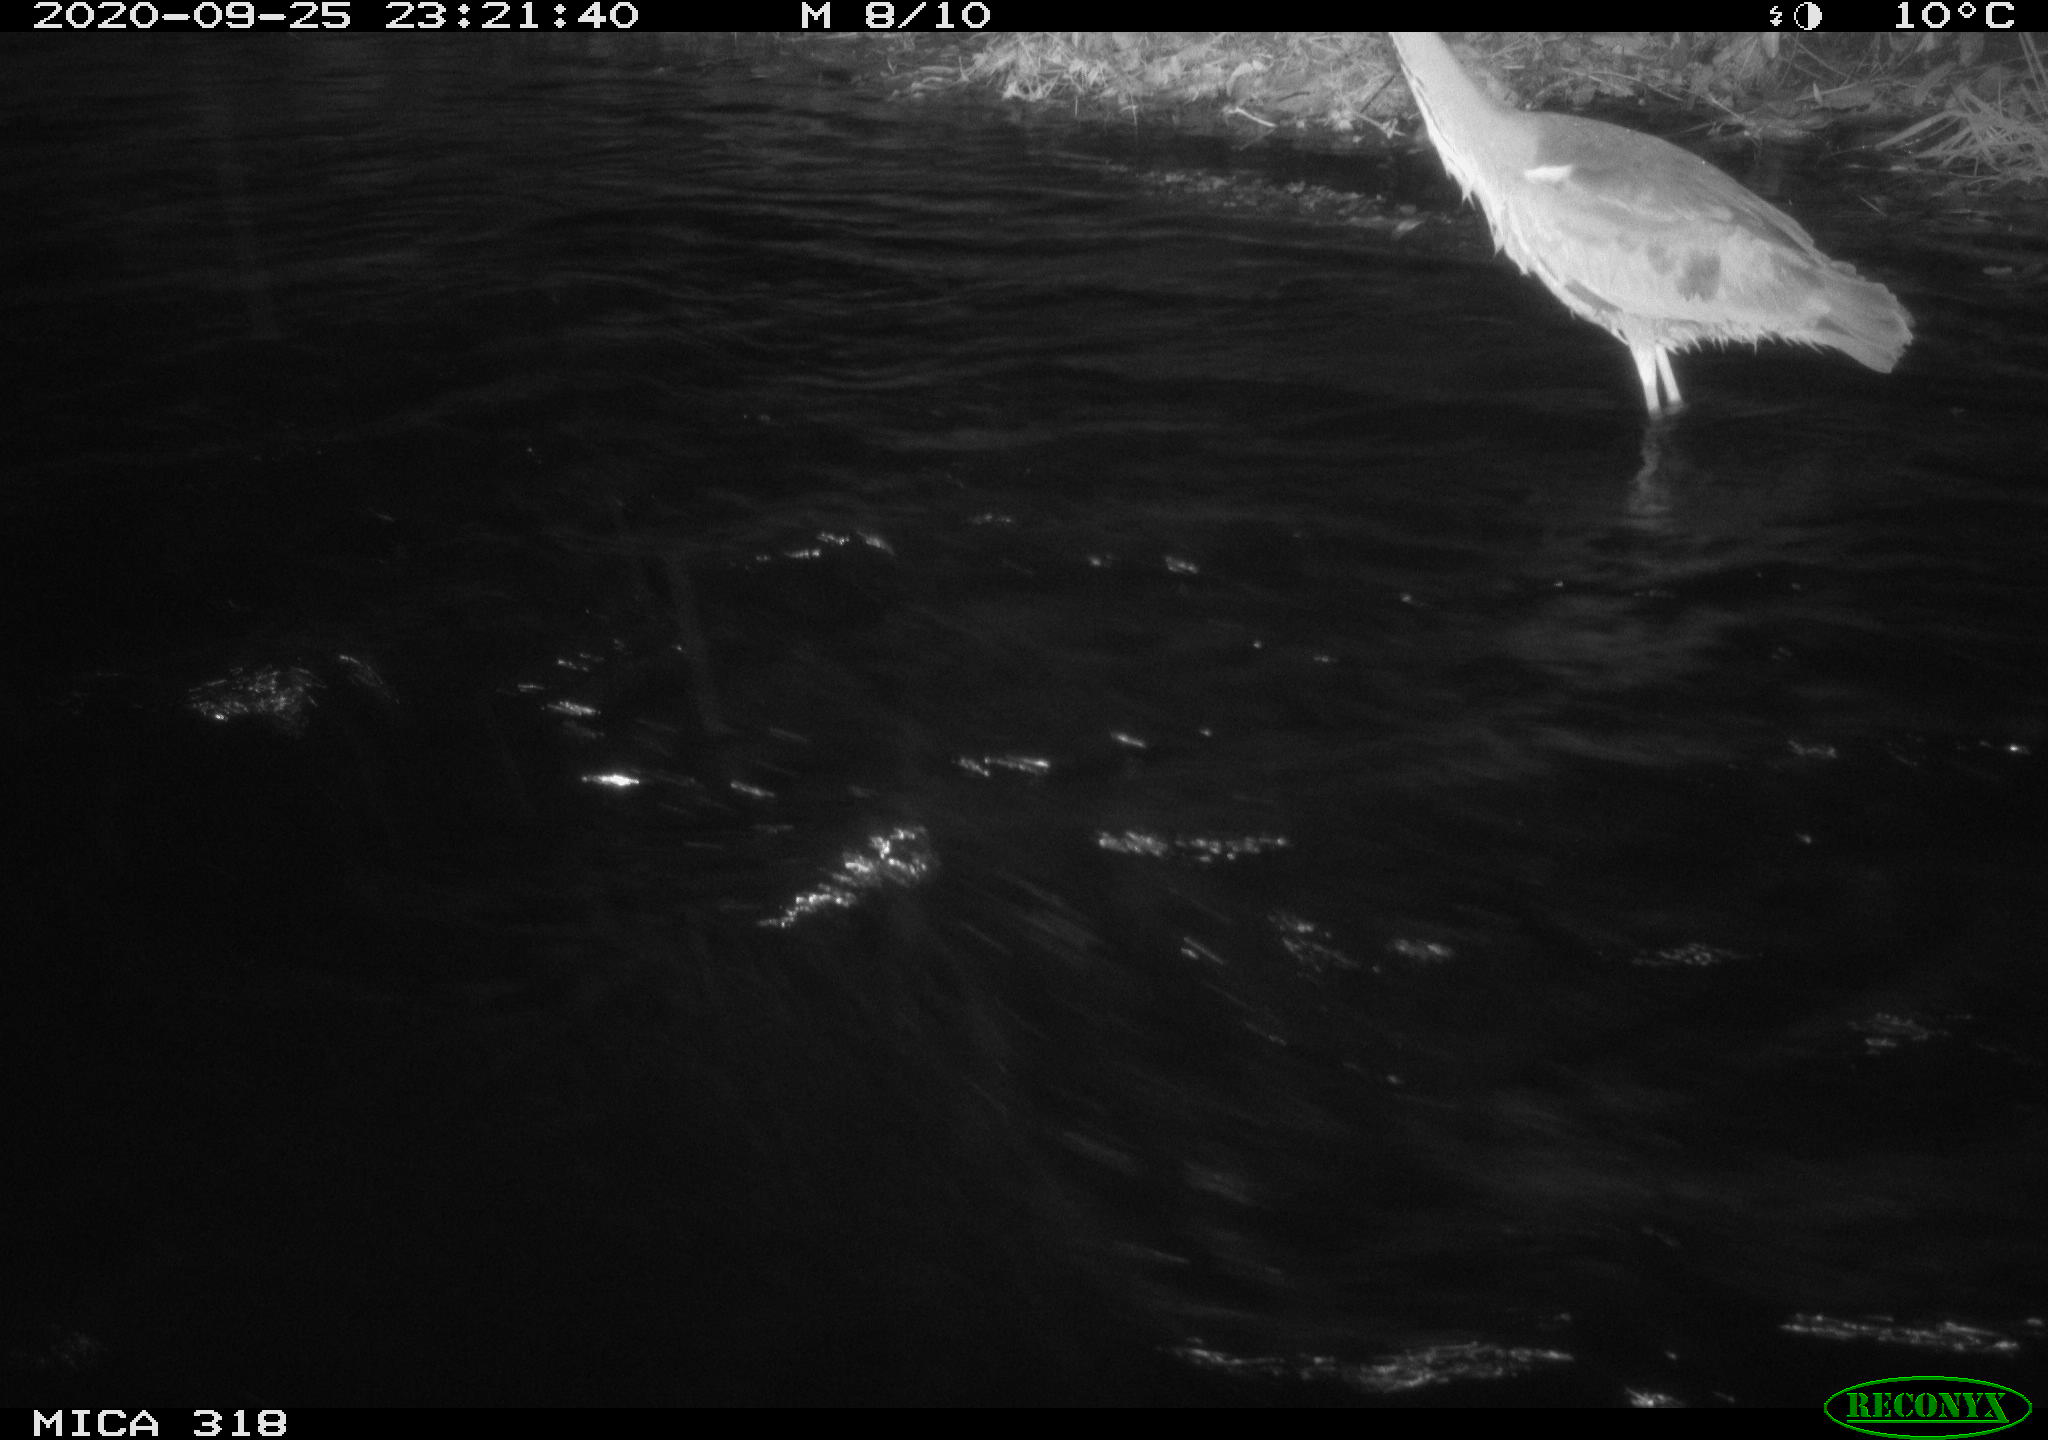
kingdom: Animalia
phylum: Chordata
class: Aves
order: Pelecaniformes
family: Ardeidae
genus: Ardea
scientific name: Ardea cinerea
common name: Grey heron
